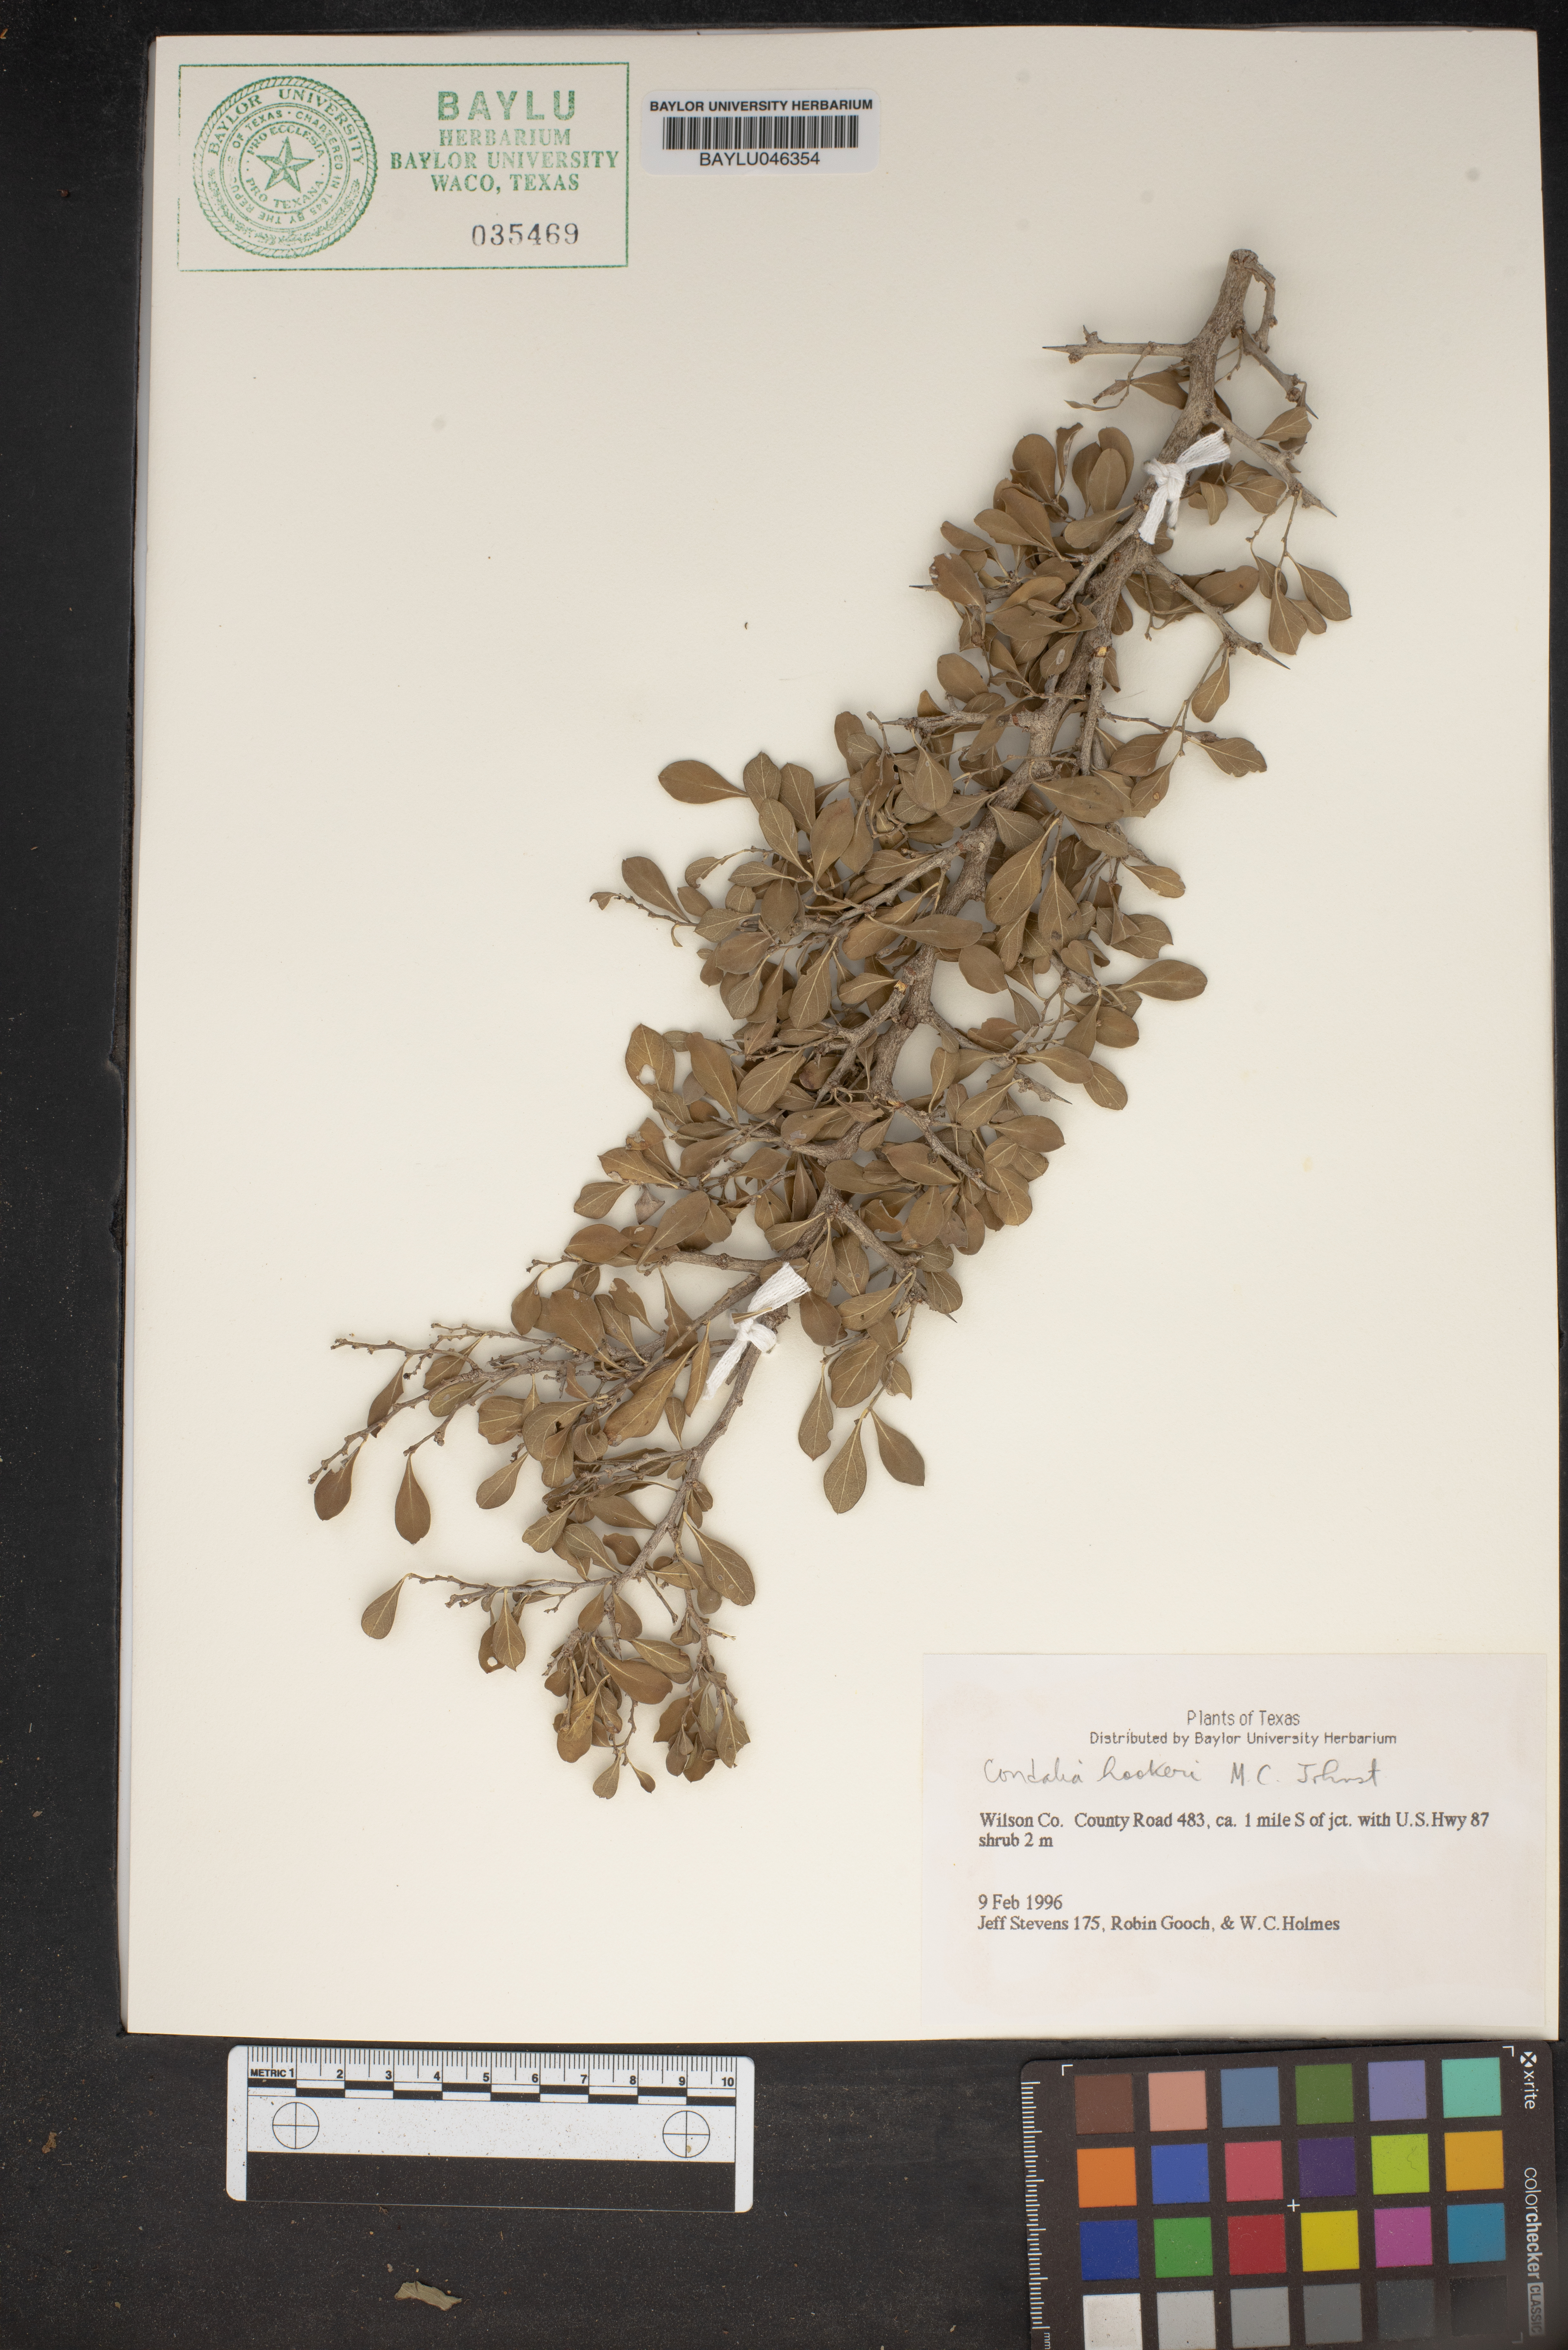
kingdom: Plantae
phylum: Tracheophyta
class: Magnoliopsida
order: Rosales
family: Rhamnaceae
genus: Condalia
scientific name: Condalia hookeri
